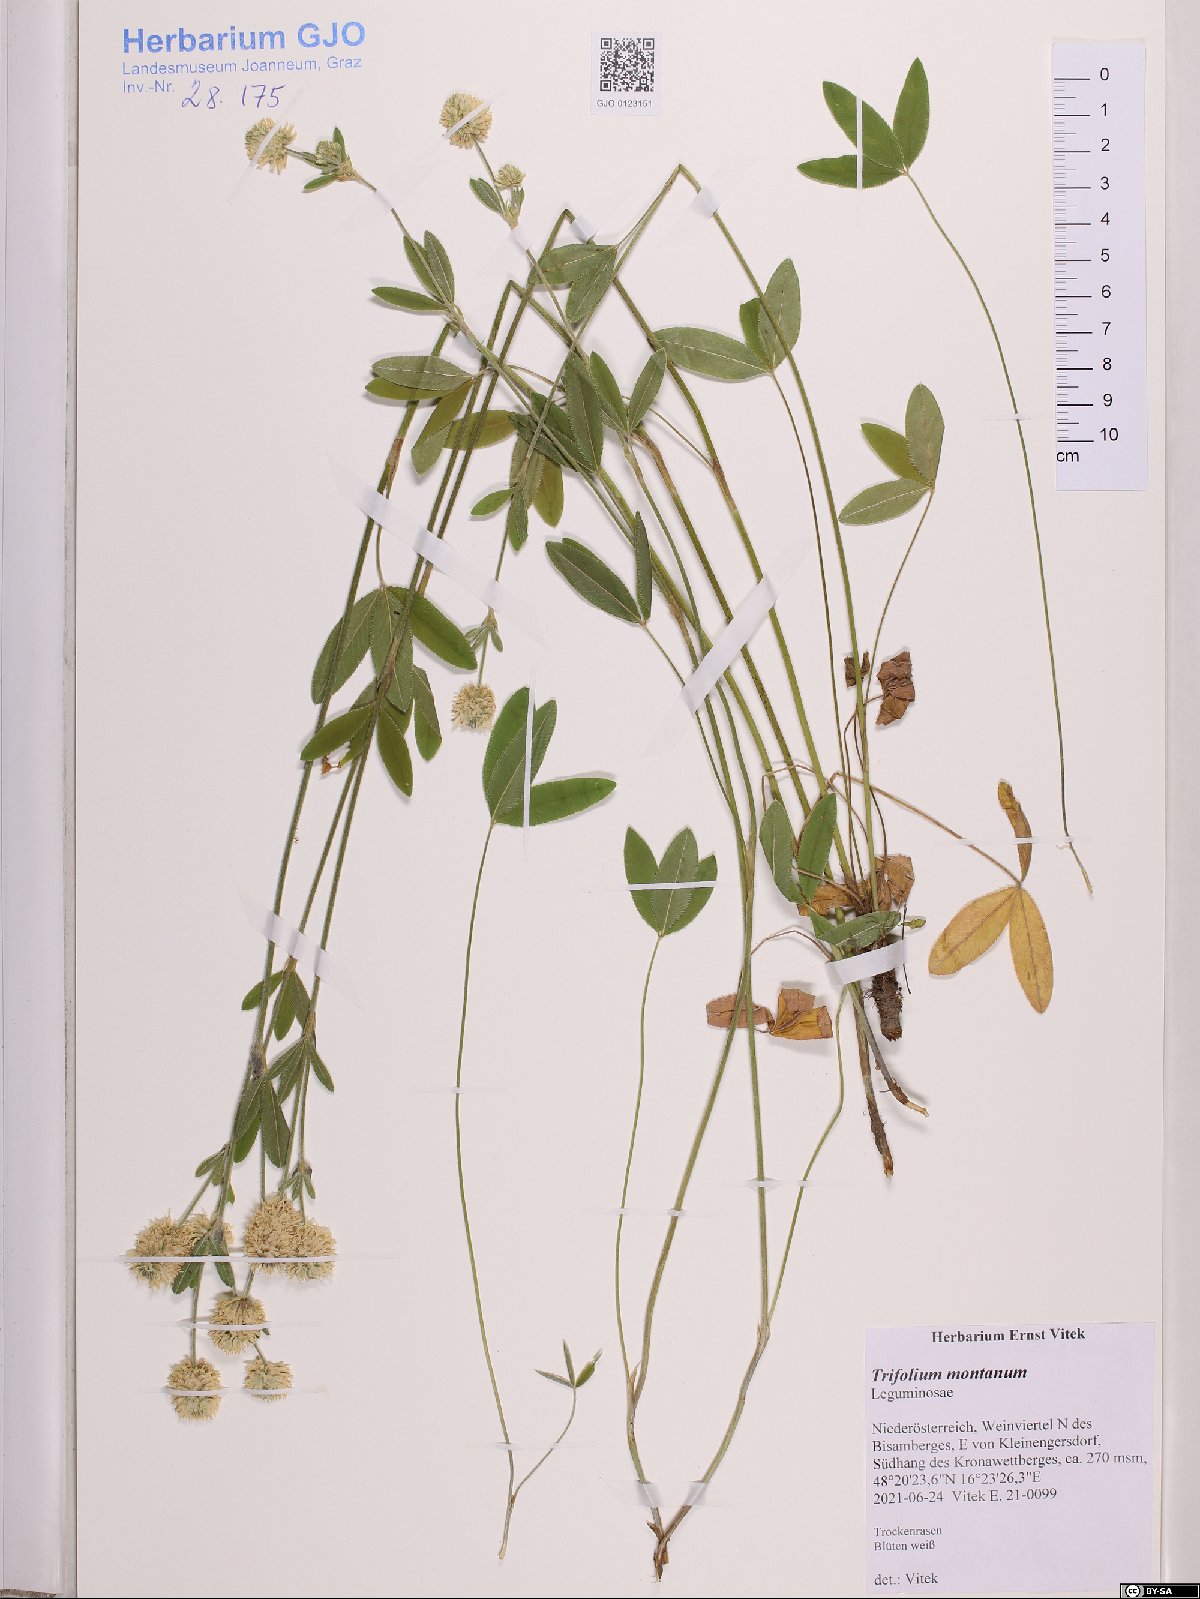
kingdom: Plantae
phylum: Tracheophyta
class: Magnoliopsida
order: Fabales
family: Fabaceae
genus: Trifolium
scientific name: Trifolium montanum
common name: Mountain clover
